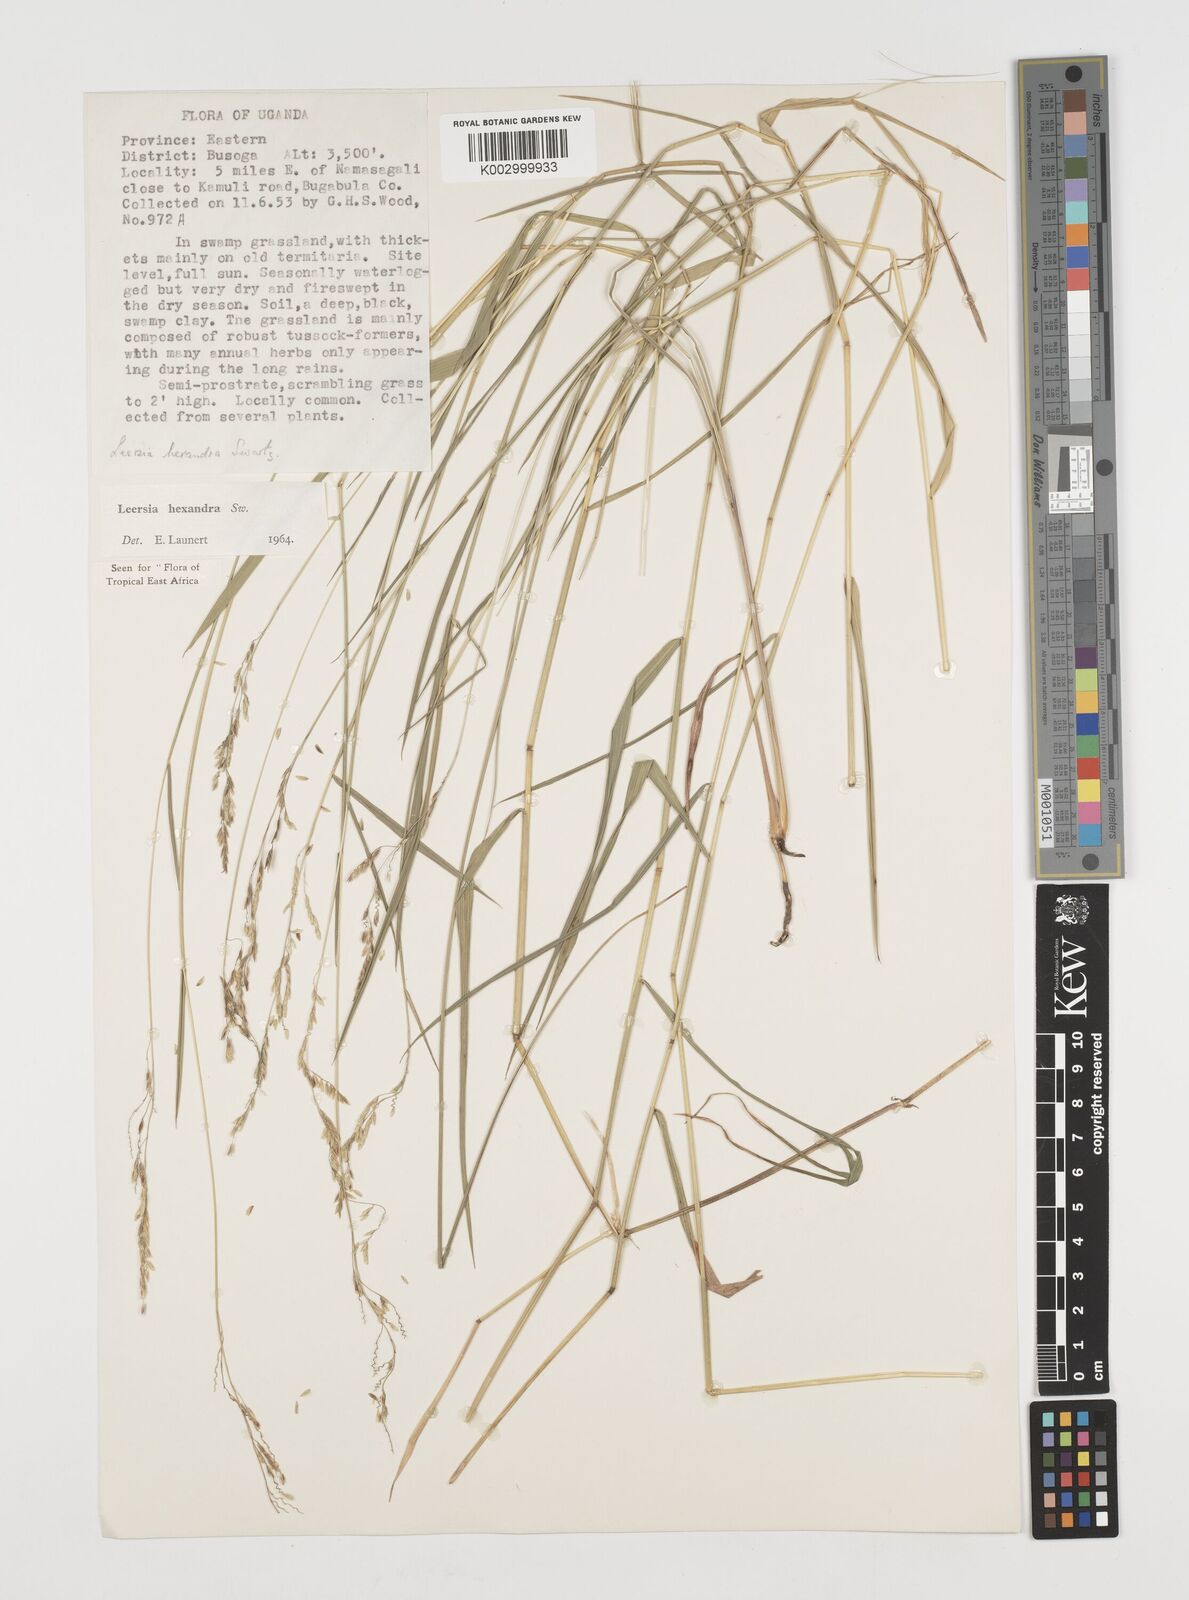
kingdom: Plantae
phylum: Tracheophyta
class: Liliopsida
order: Poales
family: Poaceae
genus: Leersia
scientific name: Leersia hexandra
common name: Southern cut grass
